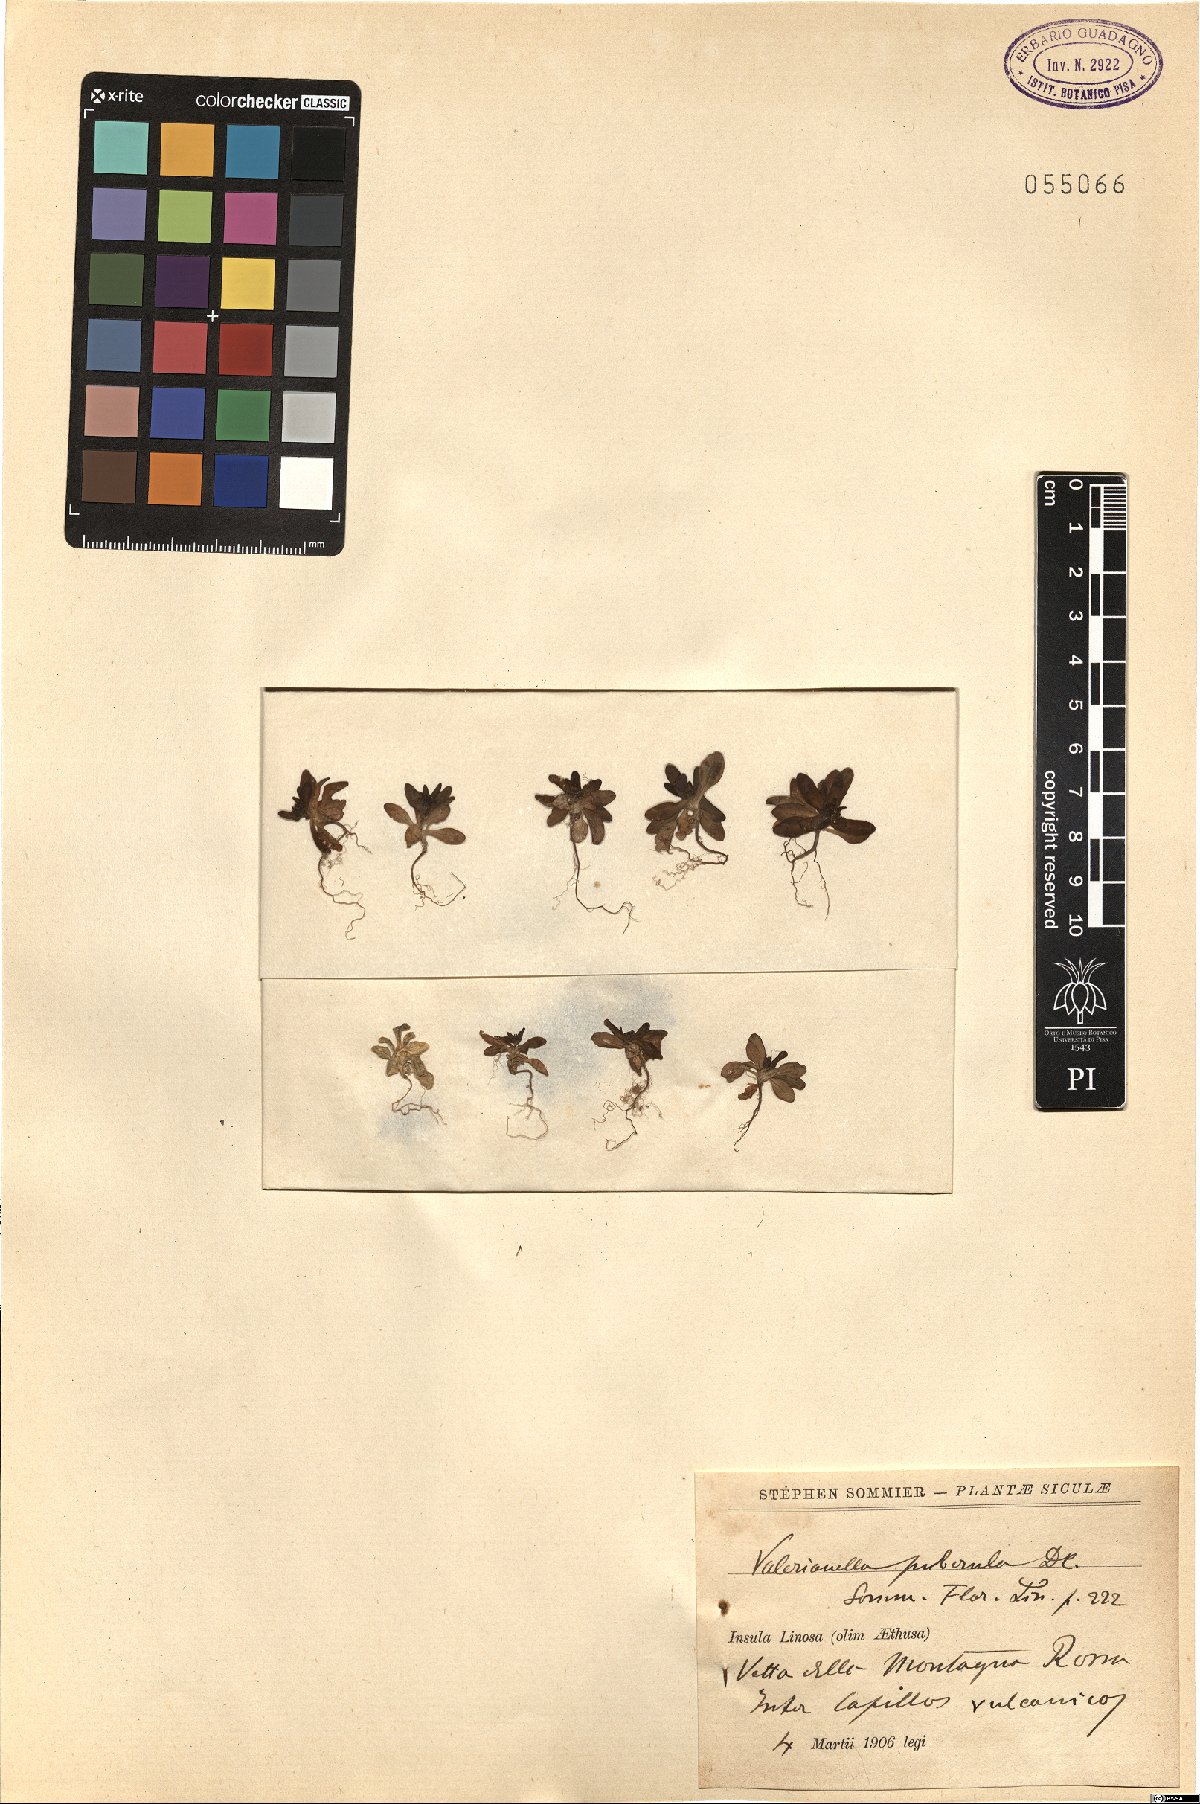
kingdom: Plantae
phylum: Tracheophyta
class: Magnoliopsida
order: Dipsacales
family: Caprifoliaceae
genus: Valerianella
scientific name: Valerianella microcarpa
